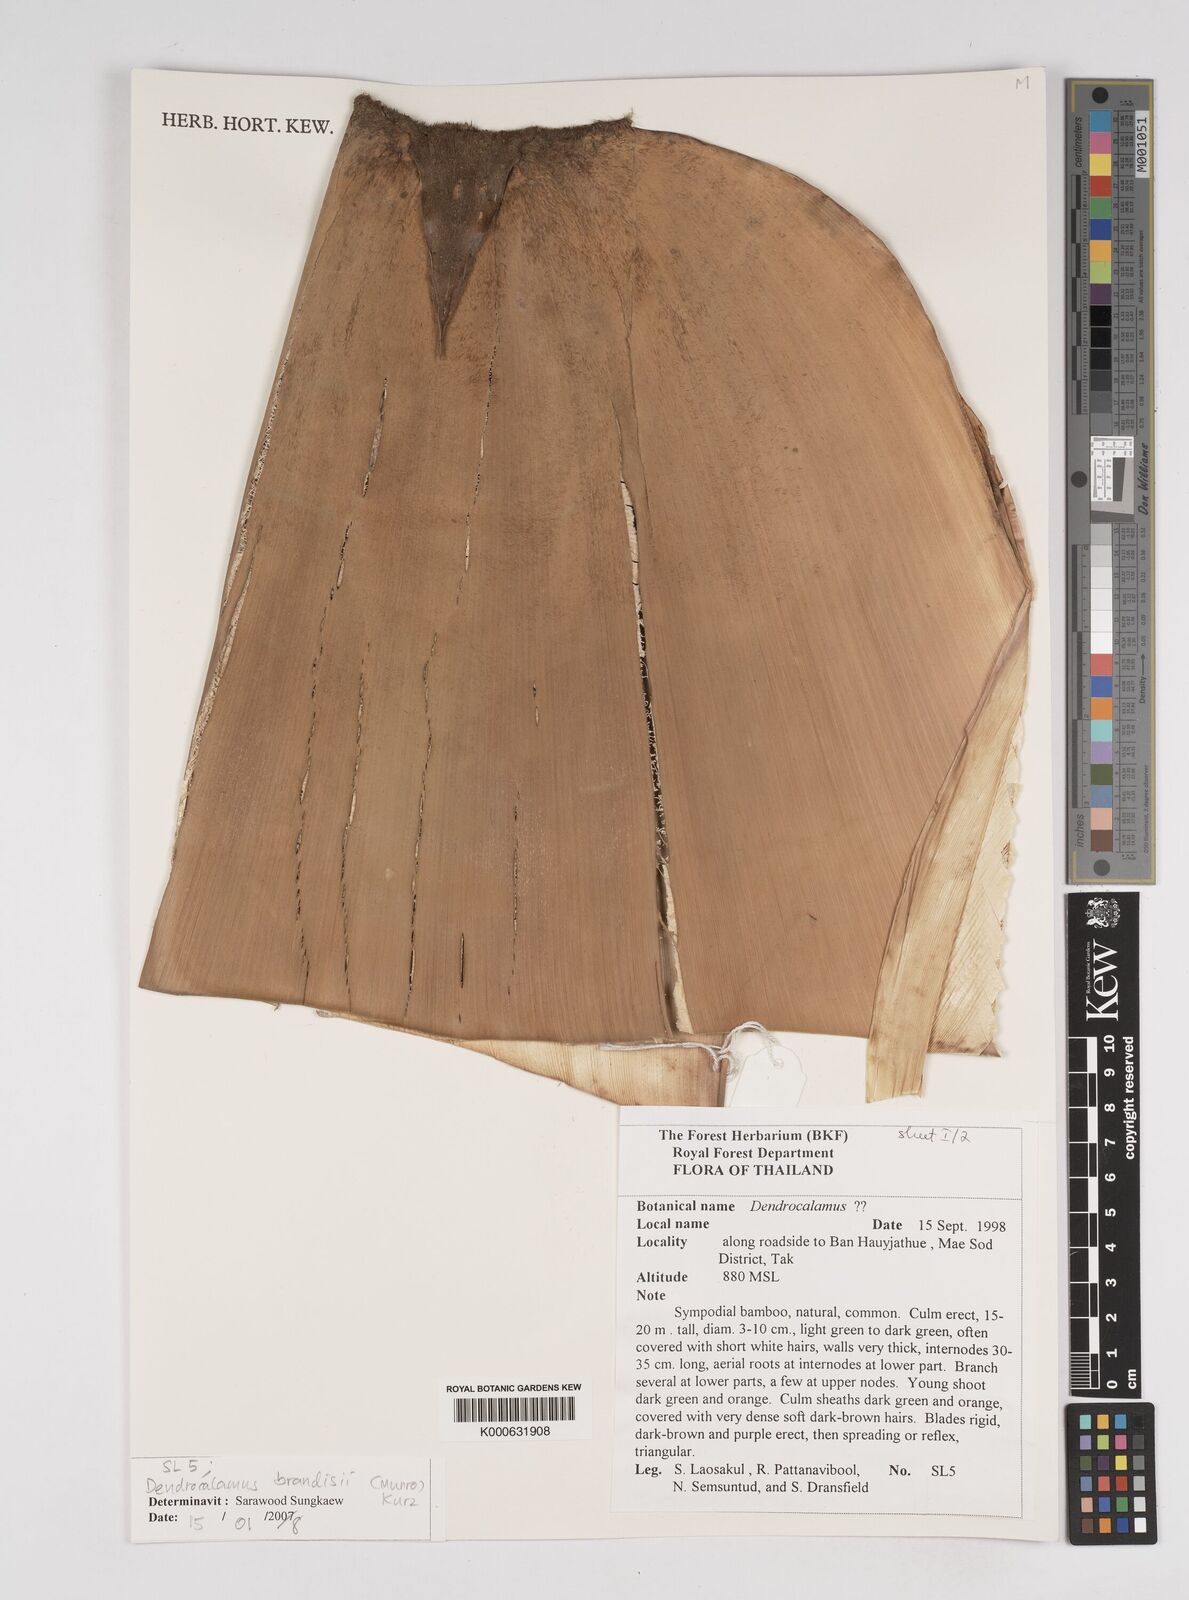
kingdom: Plantae
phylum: Tracheophyta
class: Liliopsida
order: Poales
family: Poaceae
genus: Dendrocalamus
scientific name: Dendrocalamus brandisii
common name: Velvetleaf bamboo
